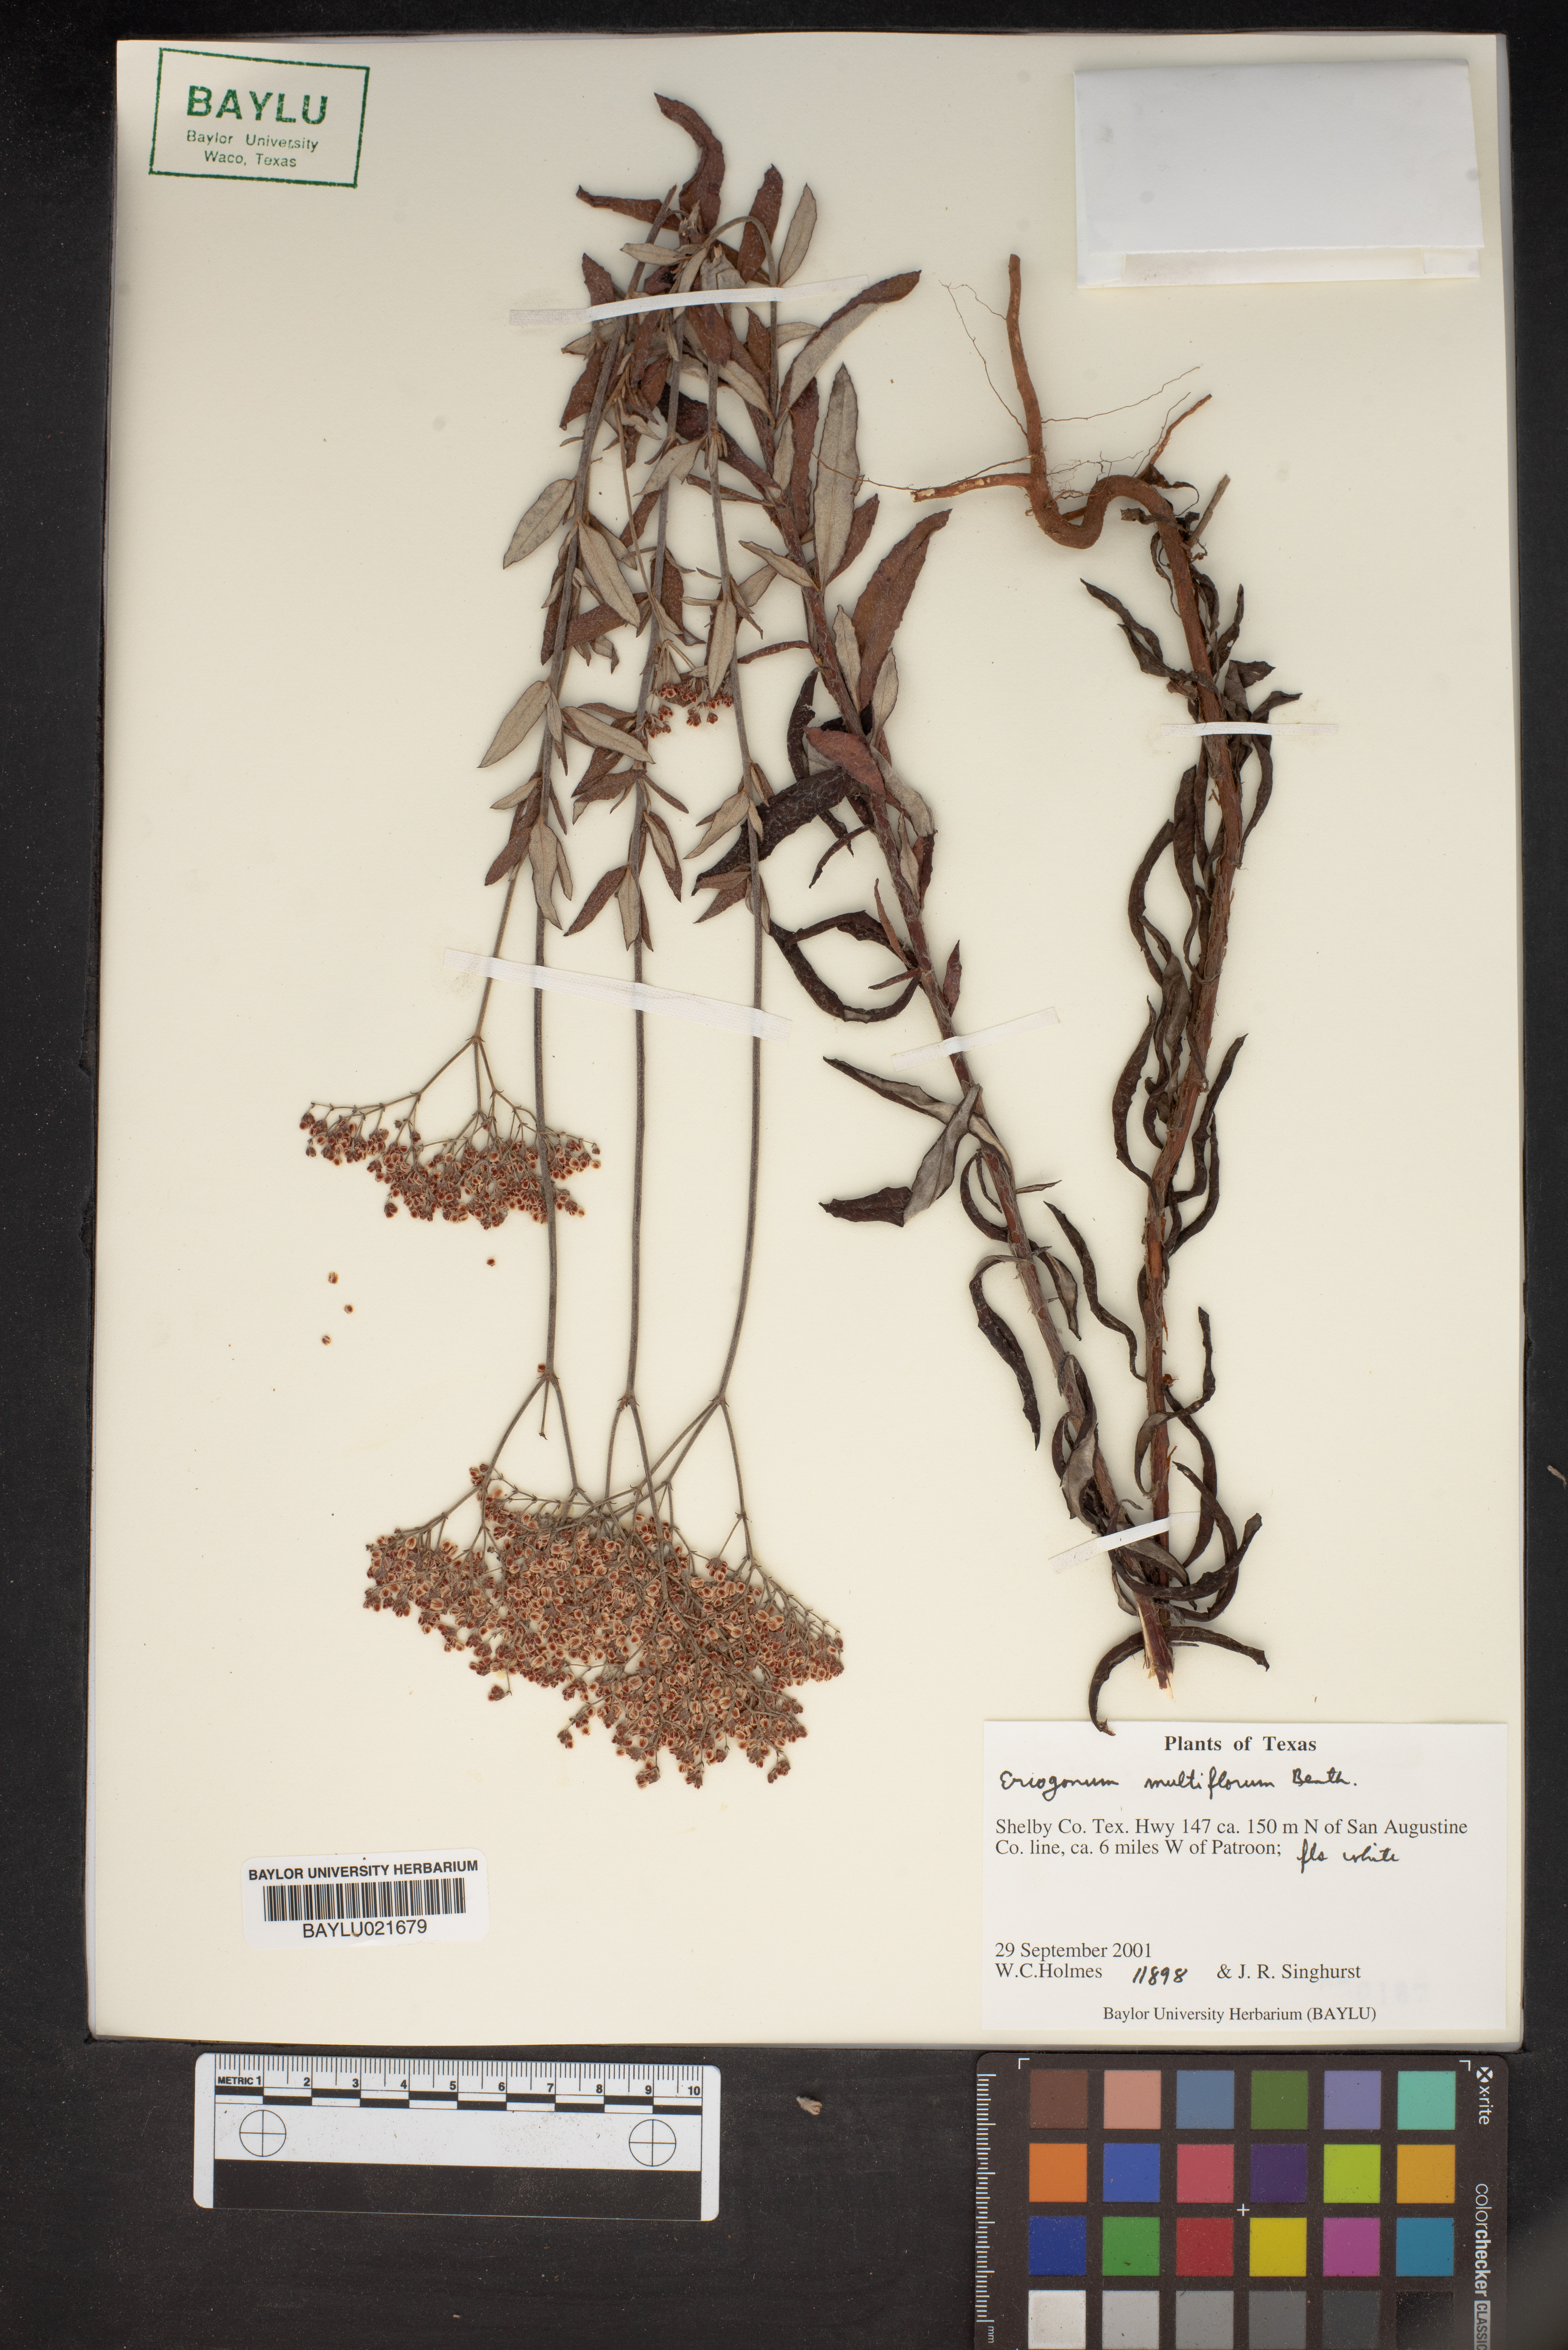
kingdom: Plantae
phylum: Tracheophyta
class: Magnoliopsida
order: Caryophyllales
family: Polygonaceae
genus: Eriogonum
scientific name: Eriogonum multiflorum
